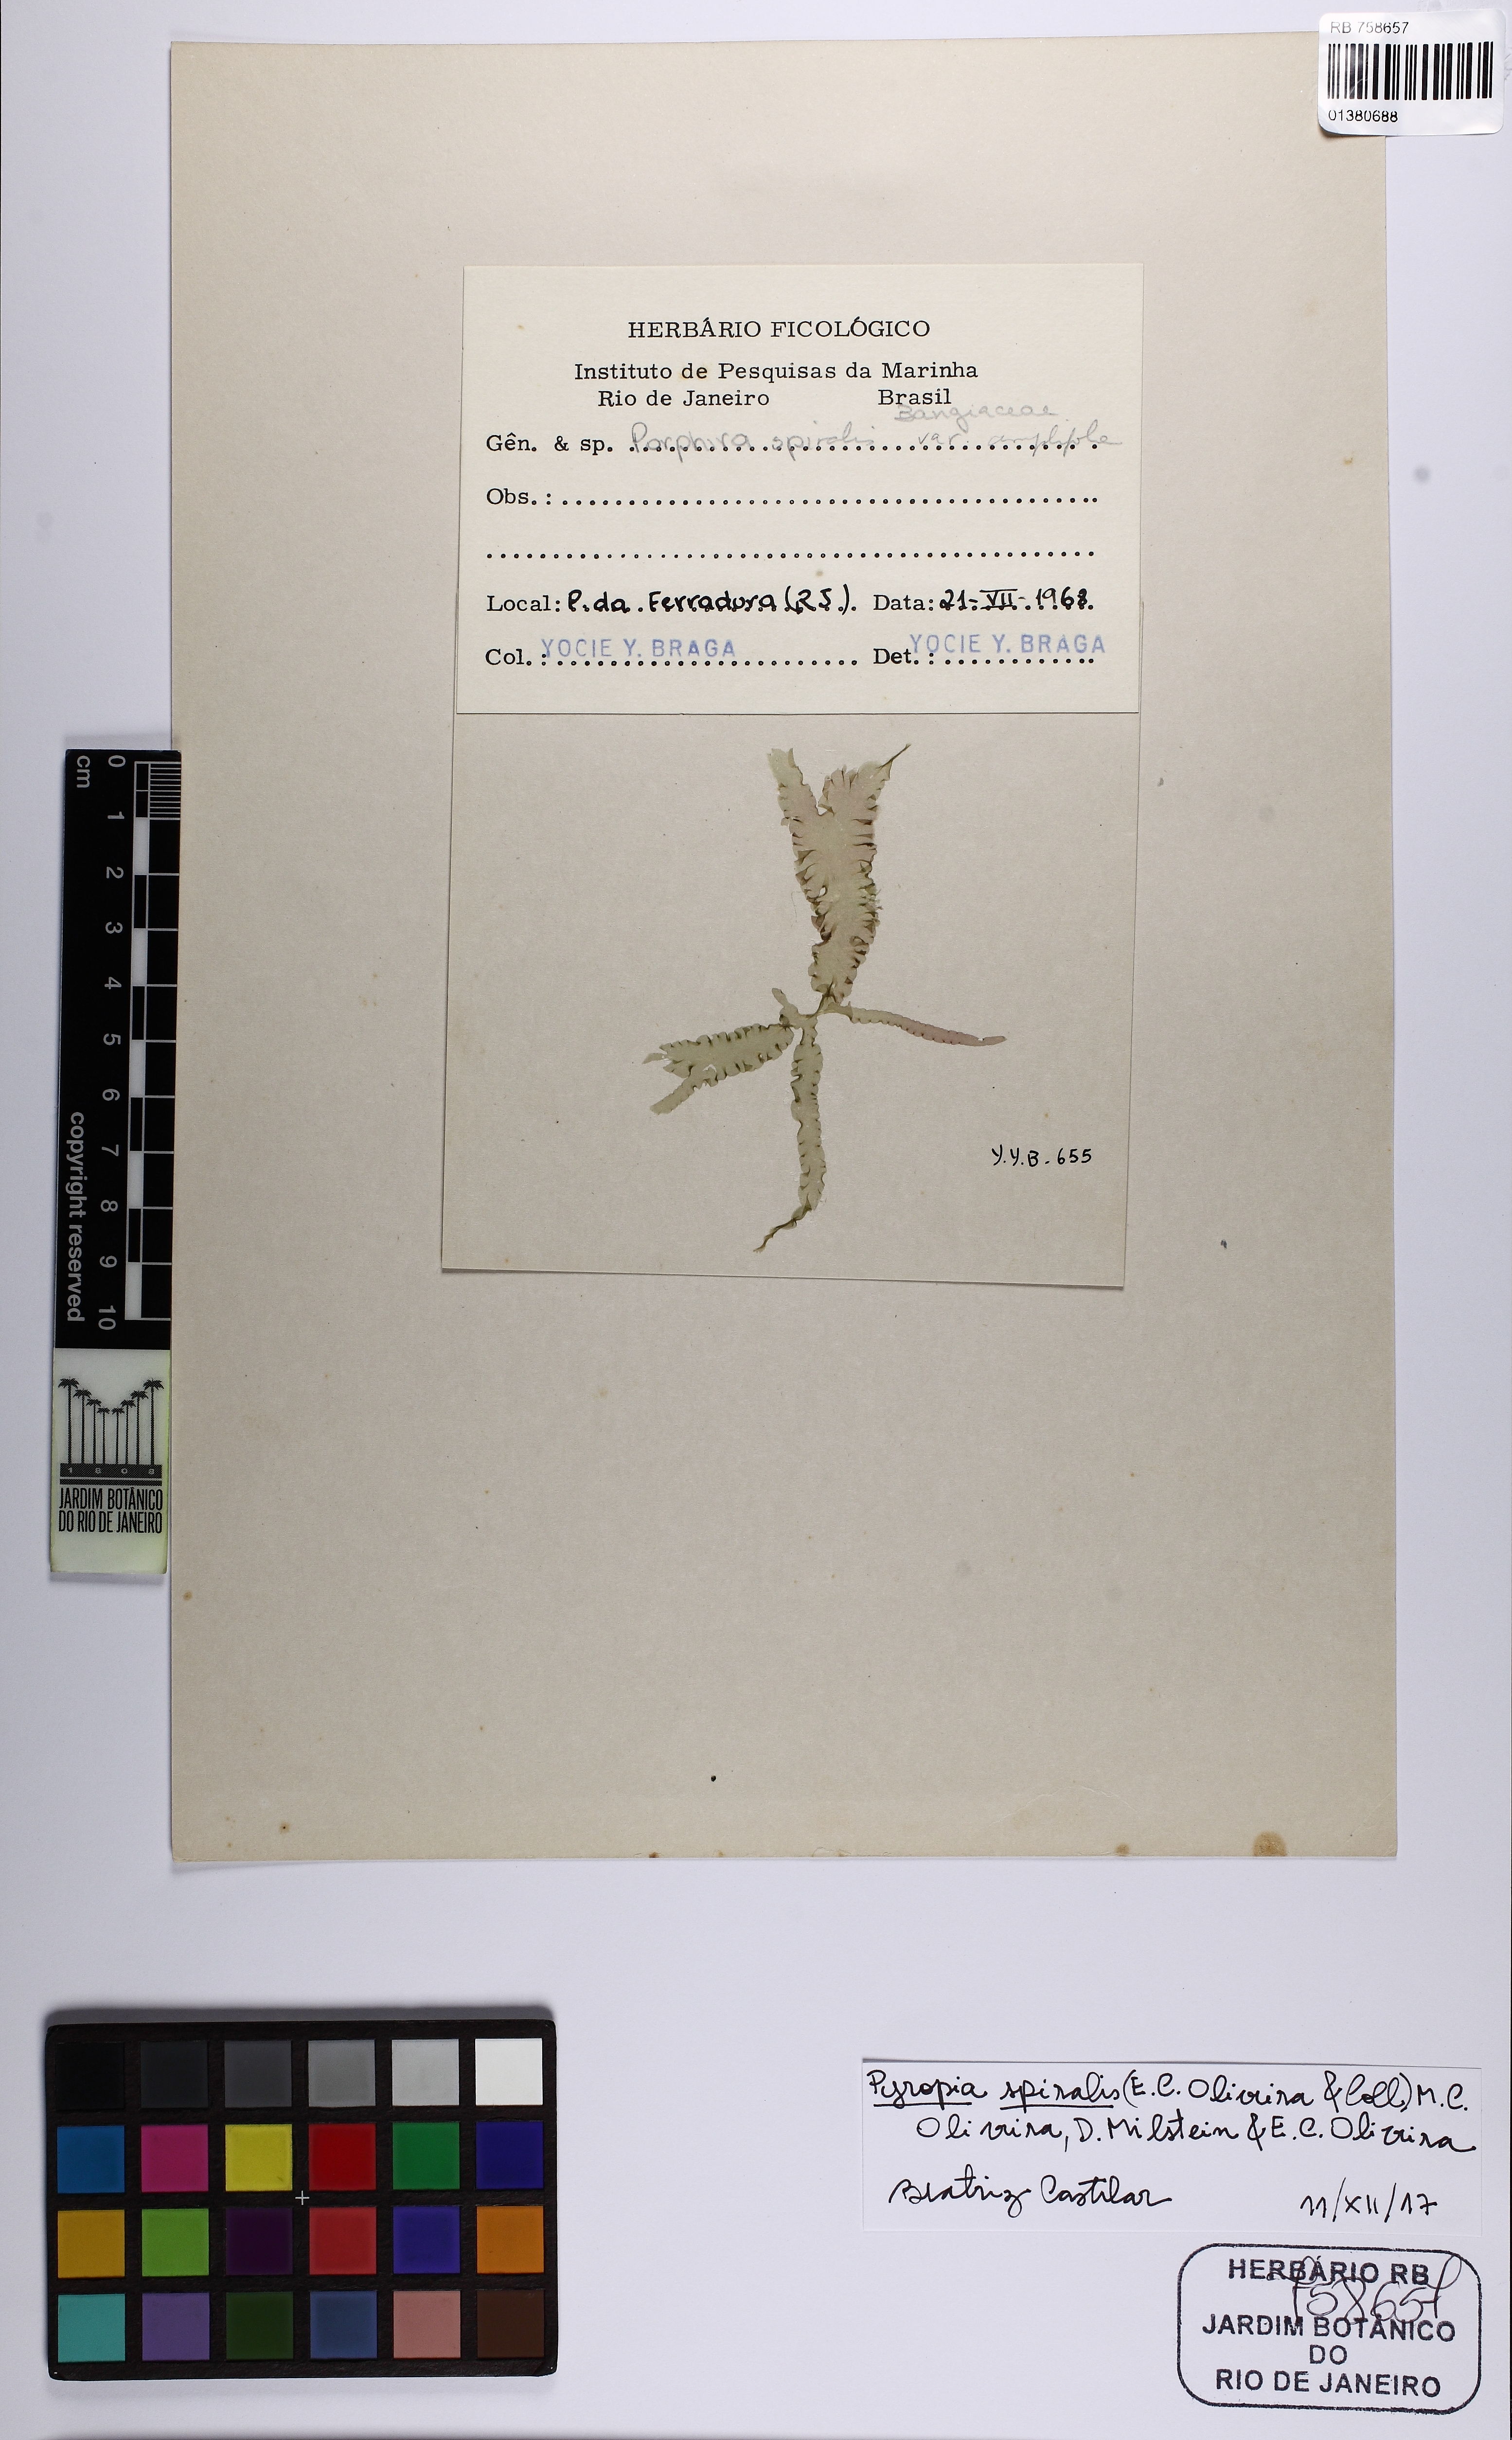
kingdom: Plantae
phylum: Rhodophyta
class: Bangiophyceae
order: Bangiales
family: Bangiaceae
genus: Pyropia
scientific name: Pyropia spiralis
